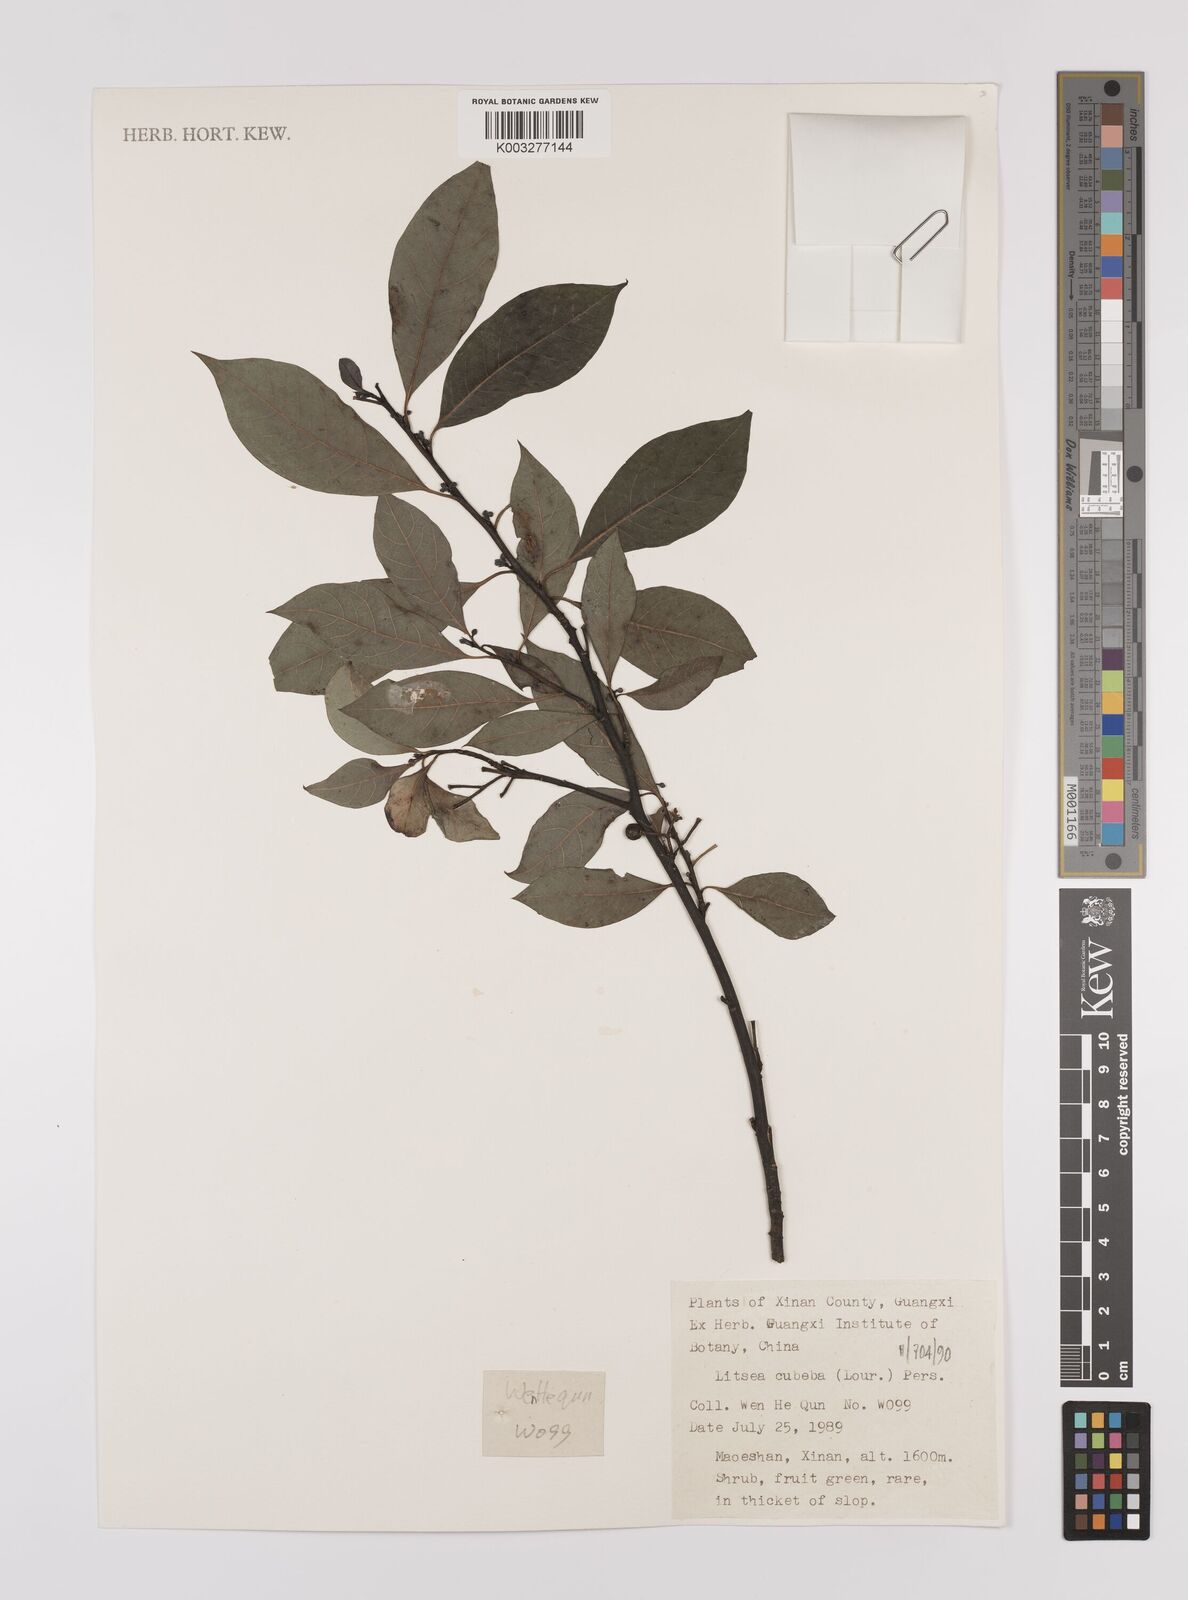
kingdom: Plantae
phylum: Tracheophyta
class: Magnoliopsida
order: Laurales
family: Lauraceae
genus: Litsea
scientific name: Litsea cubeba
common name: Mountain-pepper
